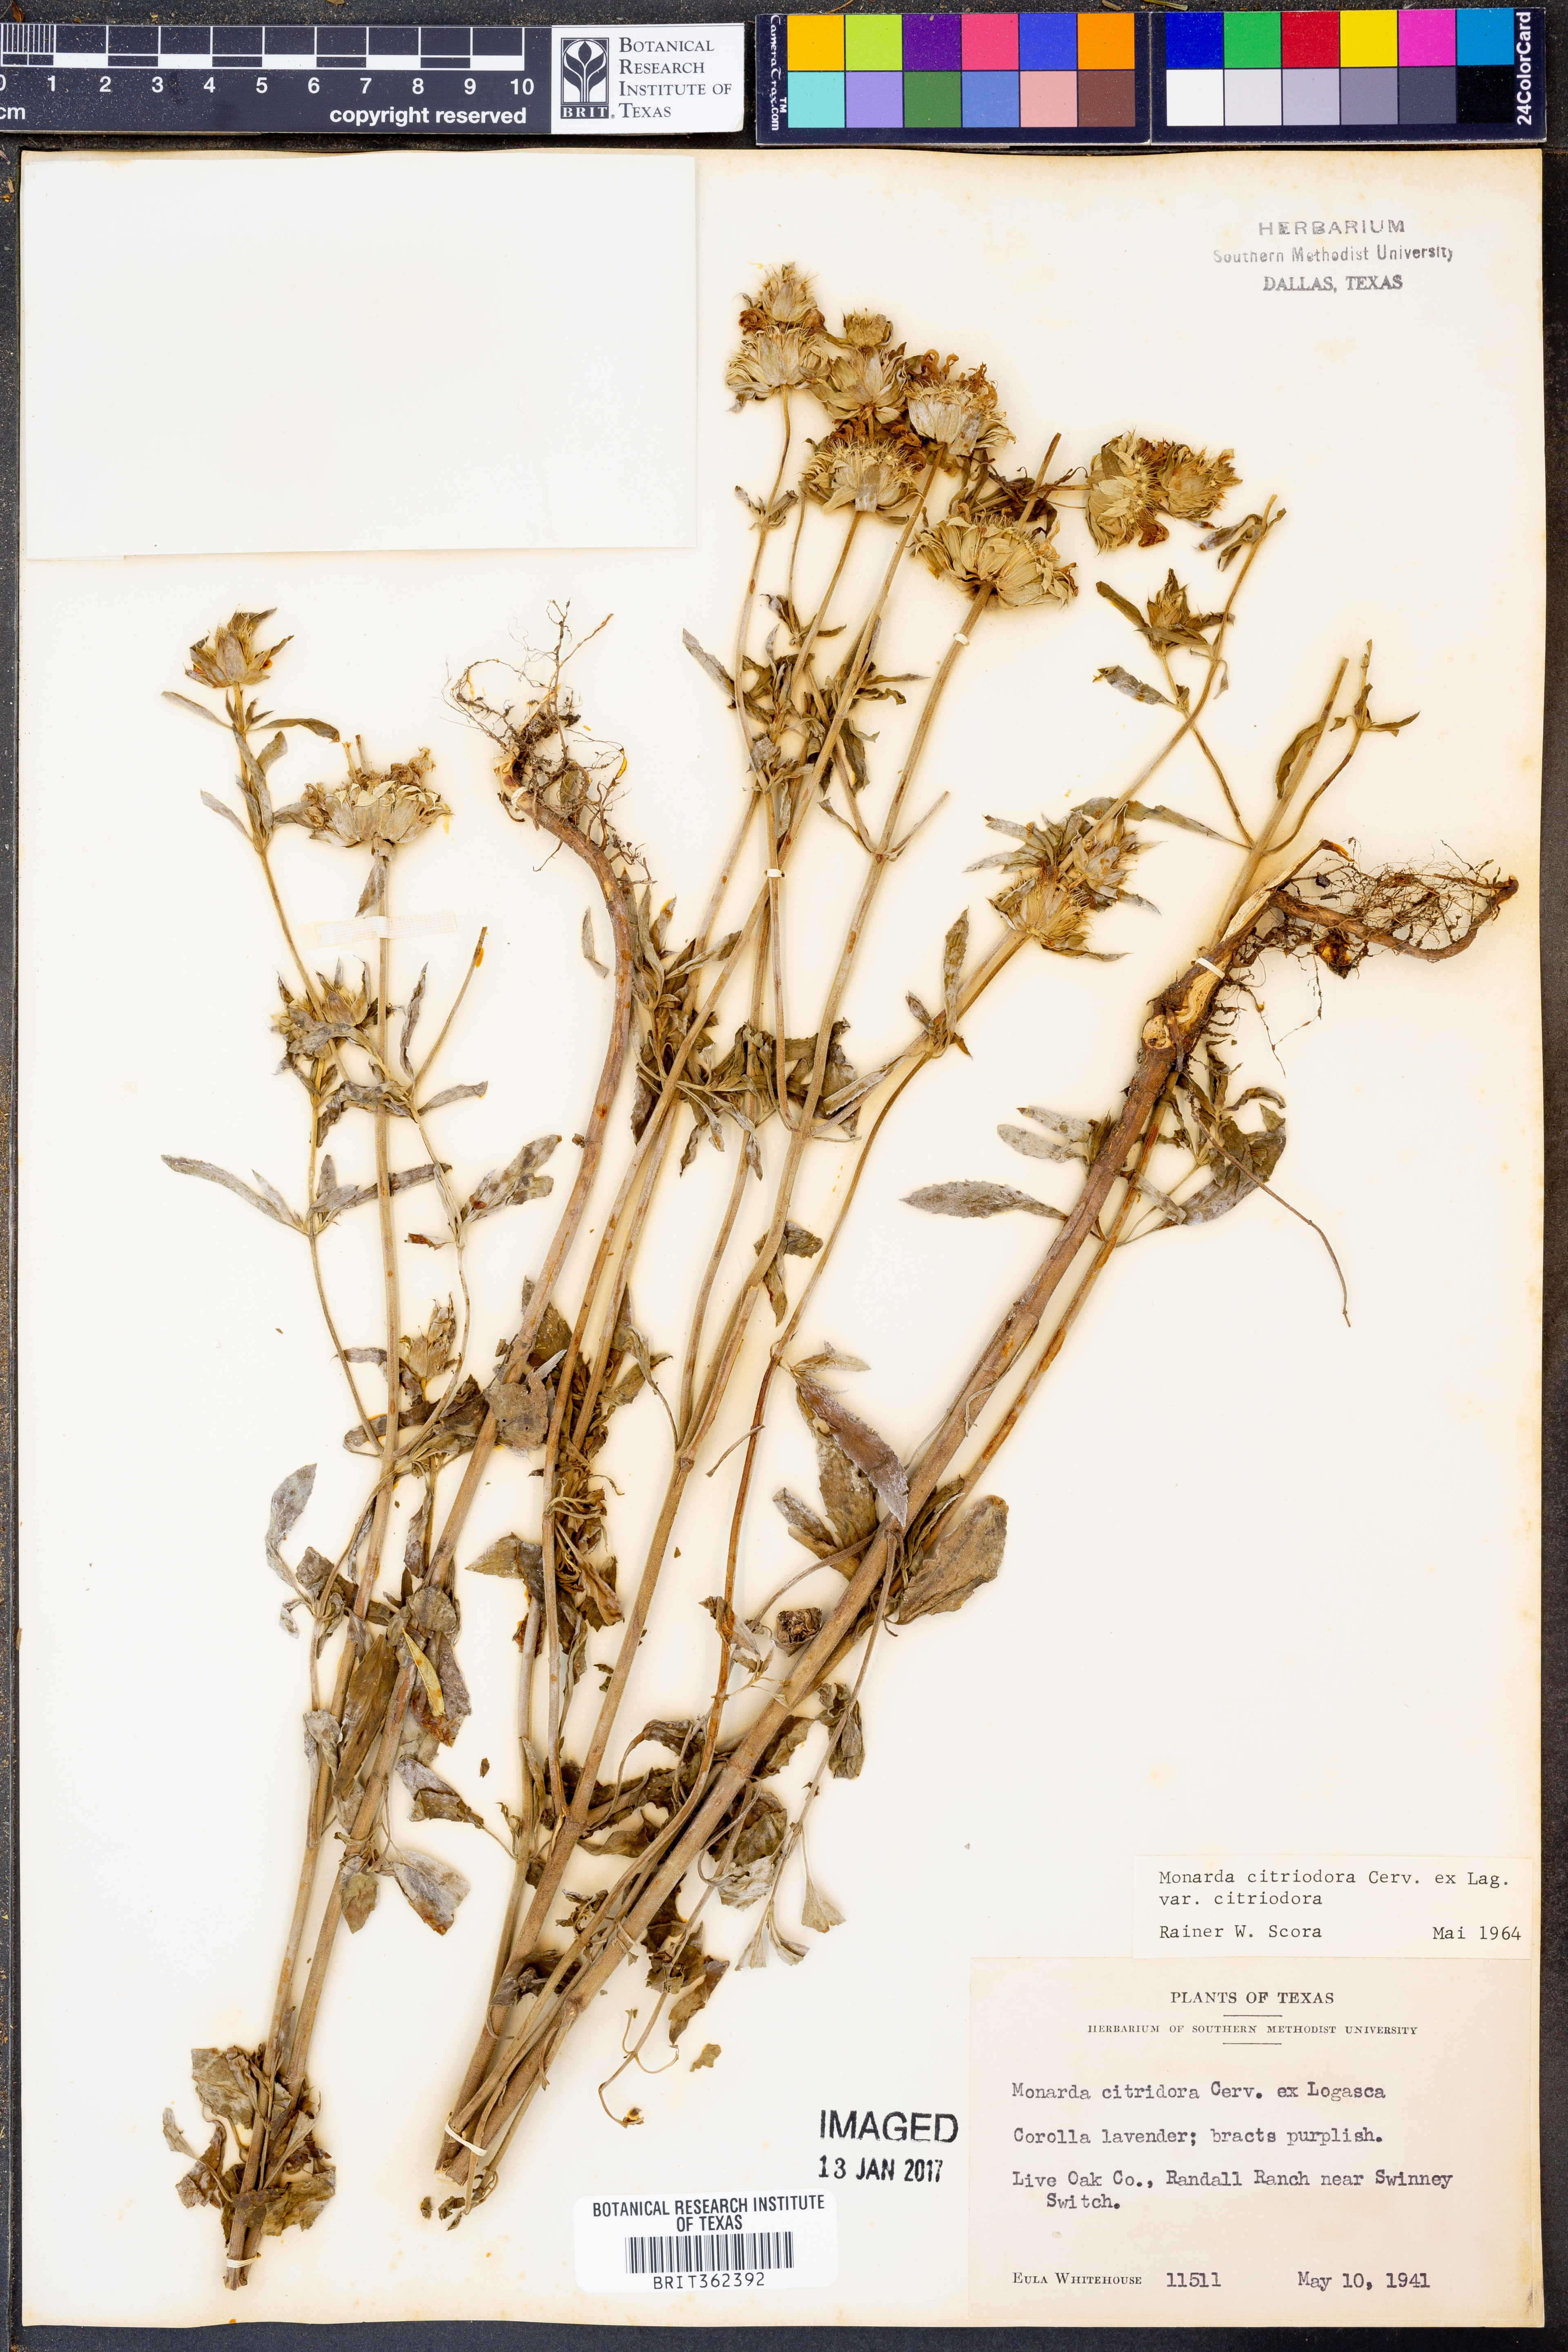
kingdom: Plantae
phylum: Tracheophyta
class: Magnoliopsida
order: Lamiales
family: Lamiaceae
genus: Monarda
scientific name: Monarda citriodora
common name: Lemon beebalm
